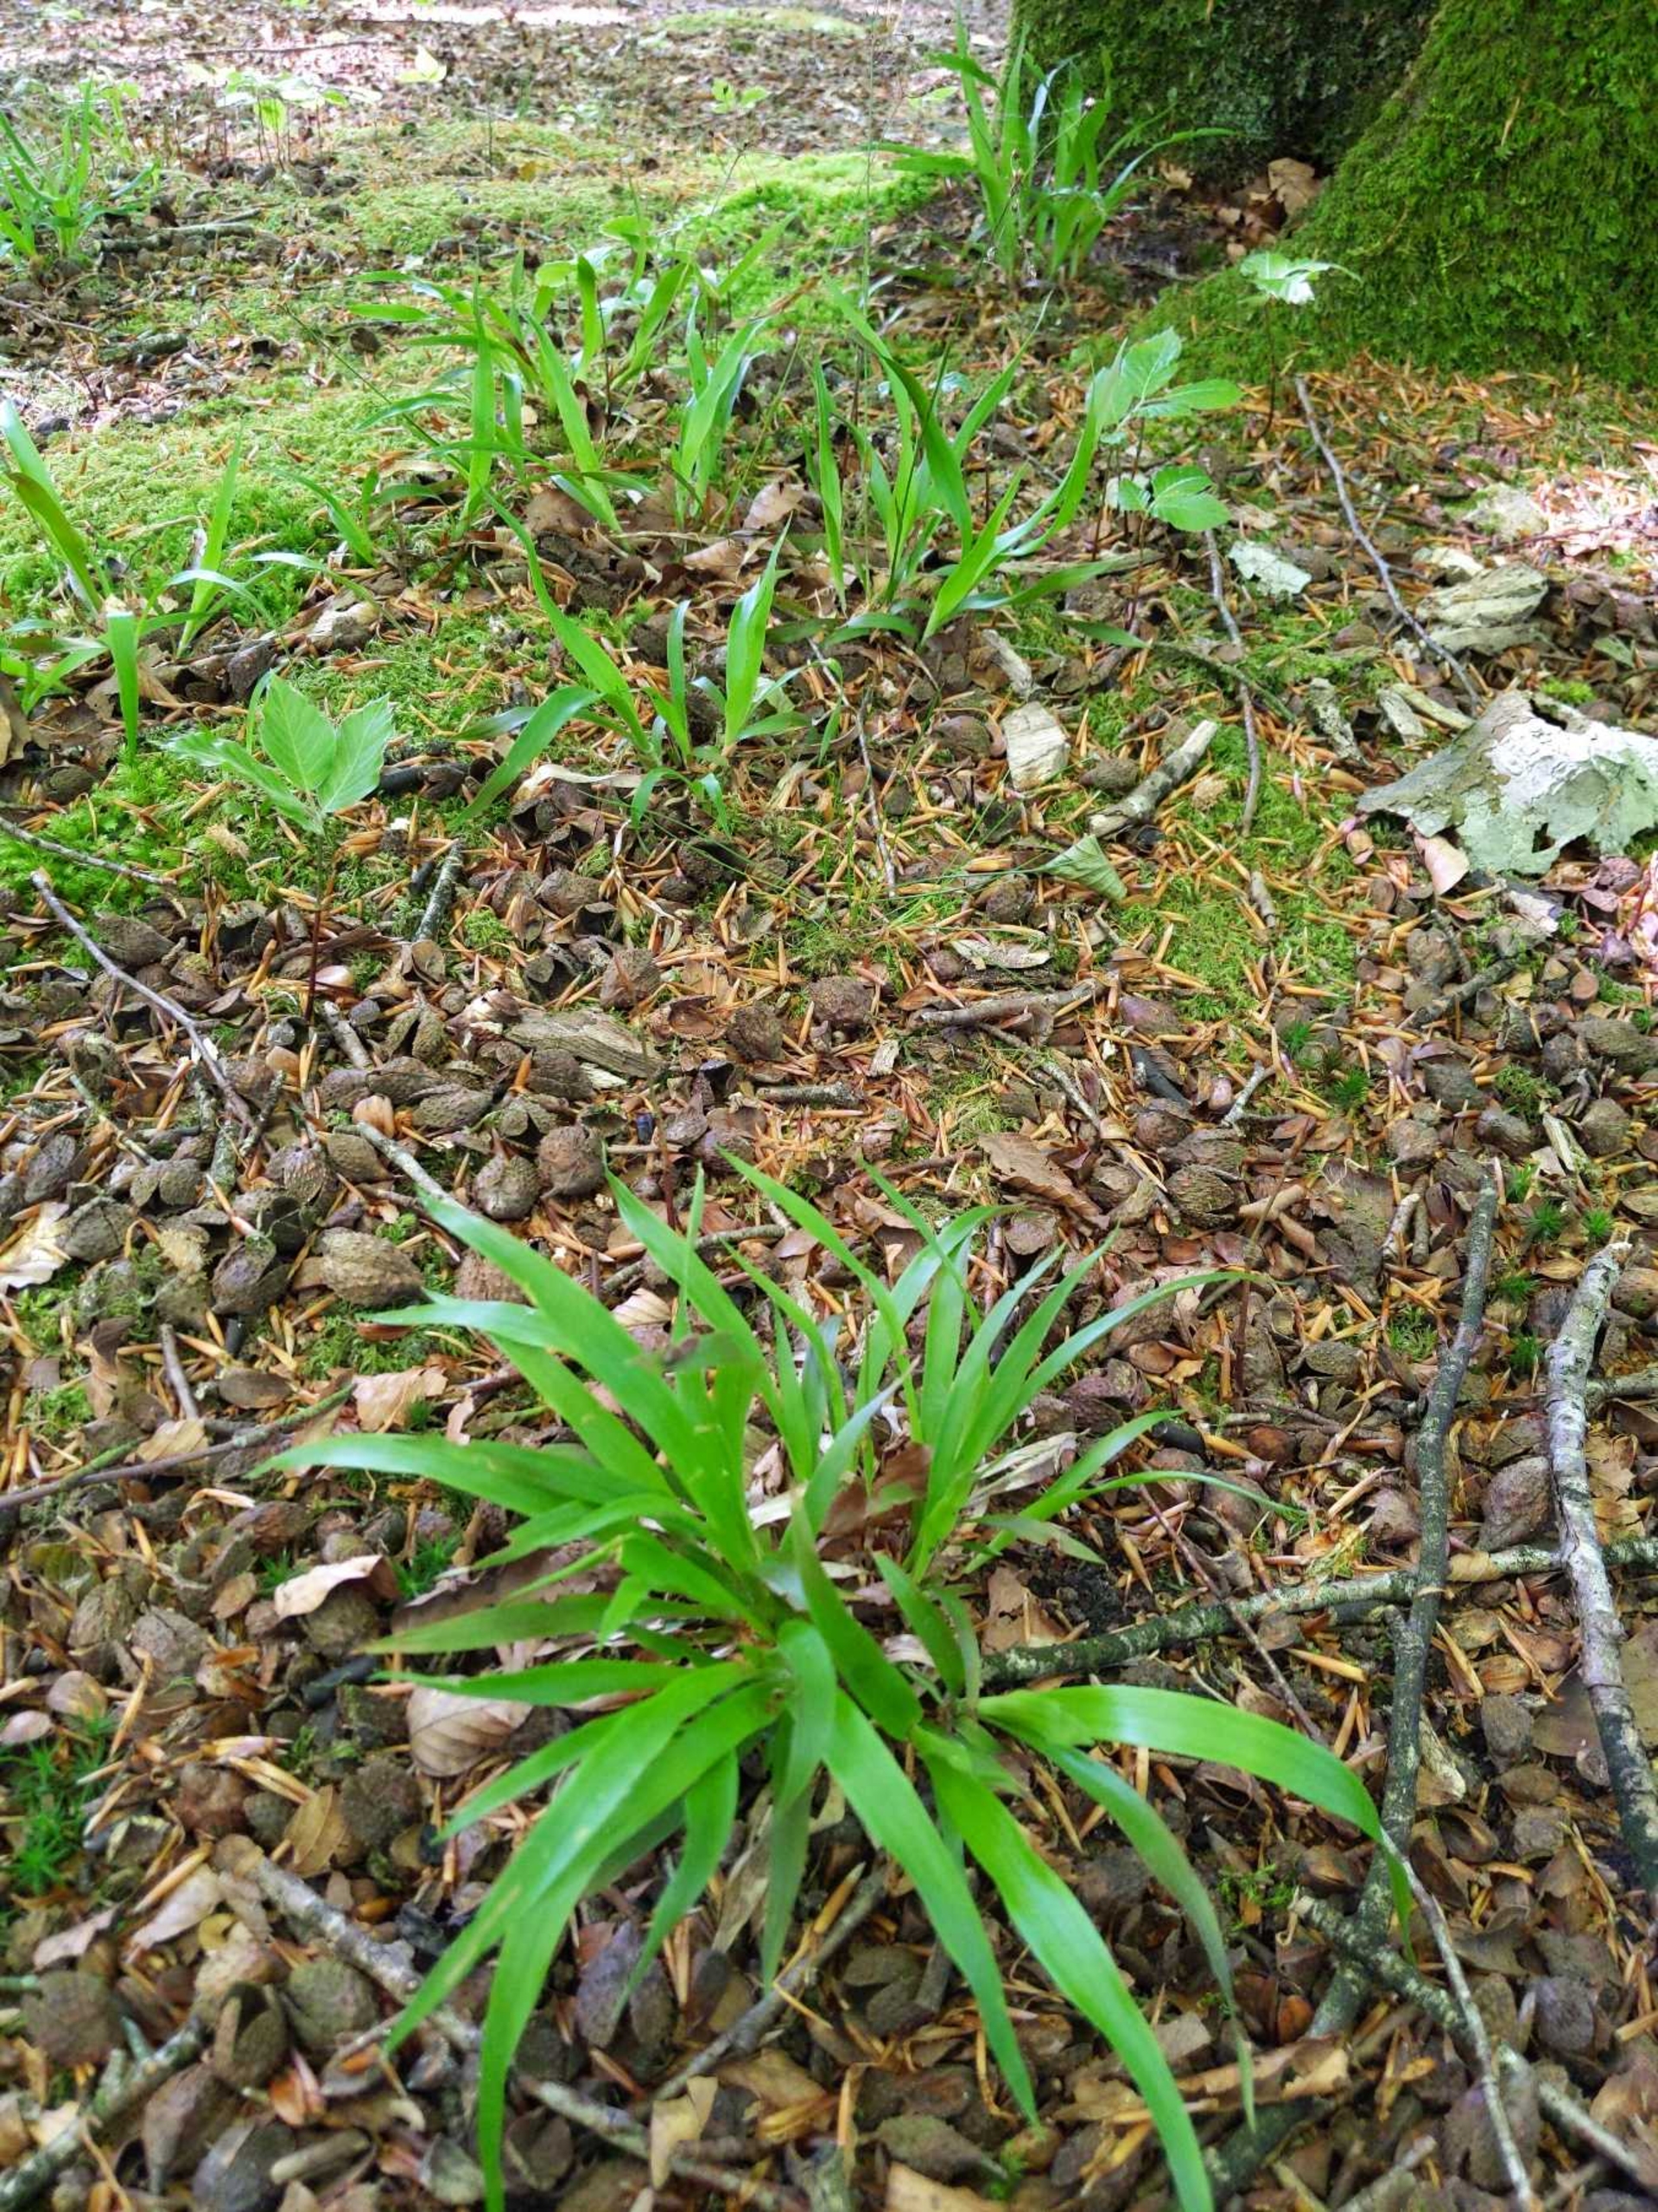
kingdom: Plantae
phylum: Tracheophyta
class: Liliopsida
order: Poales
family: Juncaceae
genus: Luzula
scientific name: Luzula pilosa
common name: Håret frytle
